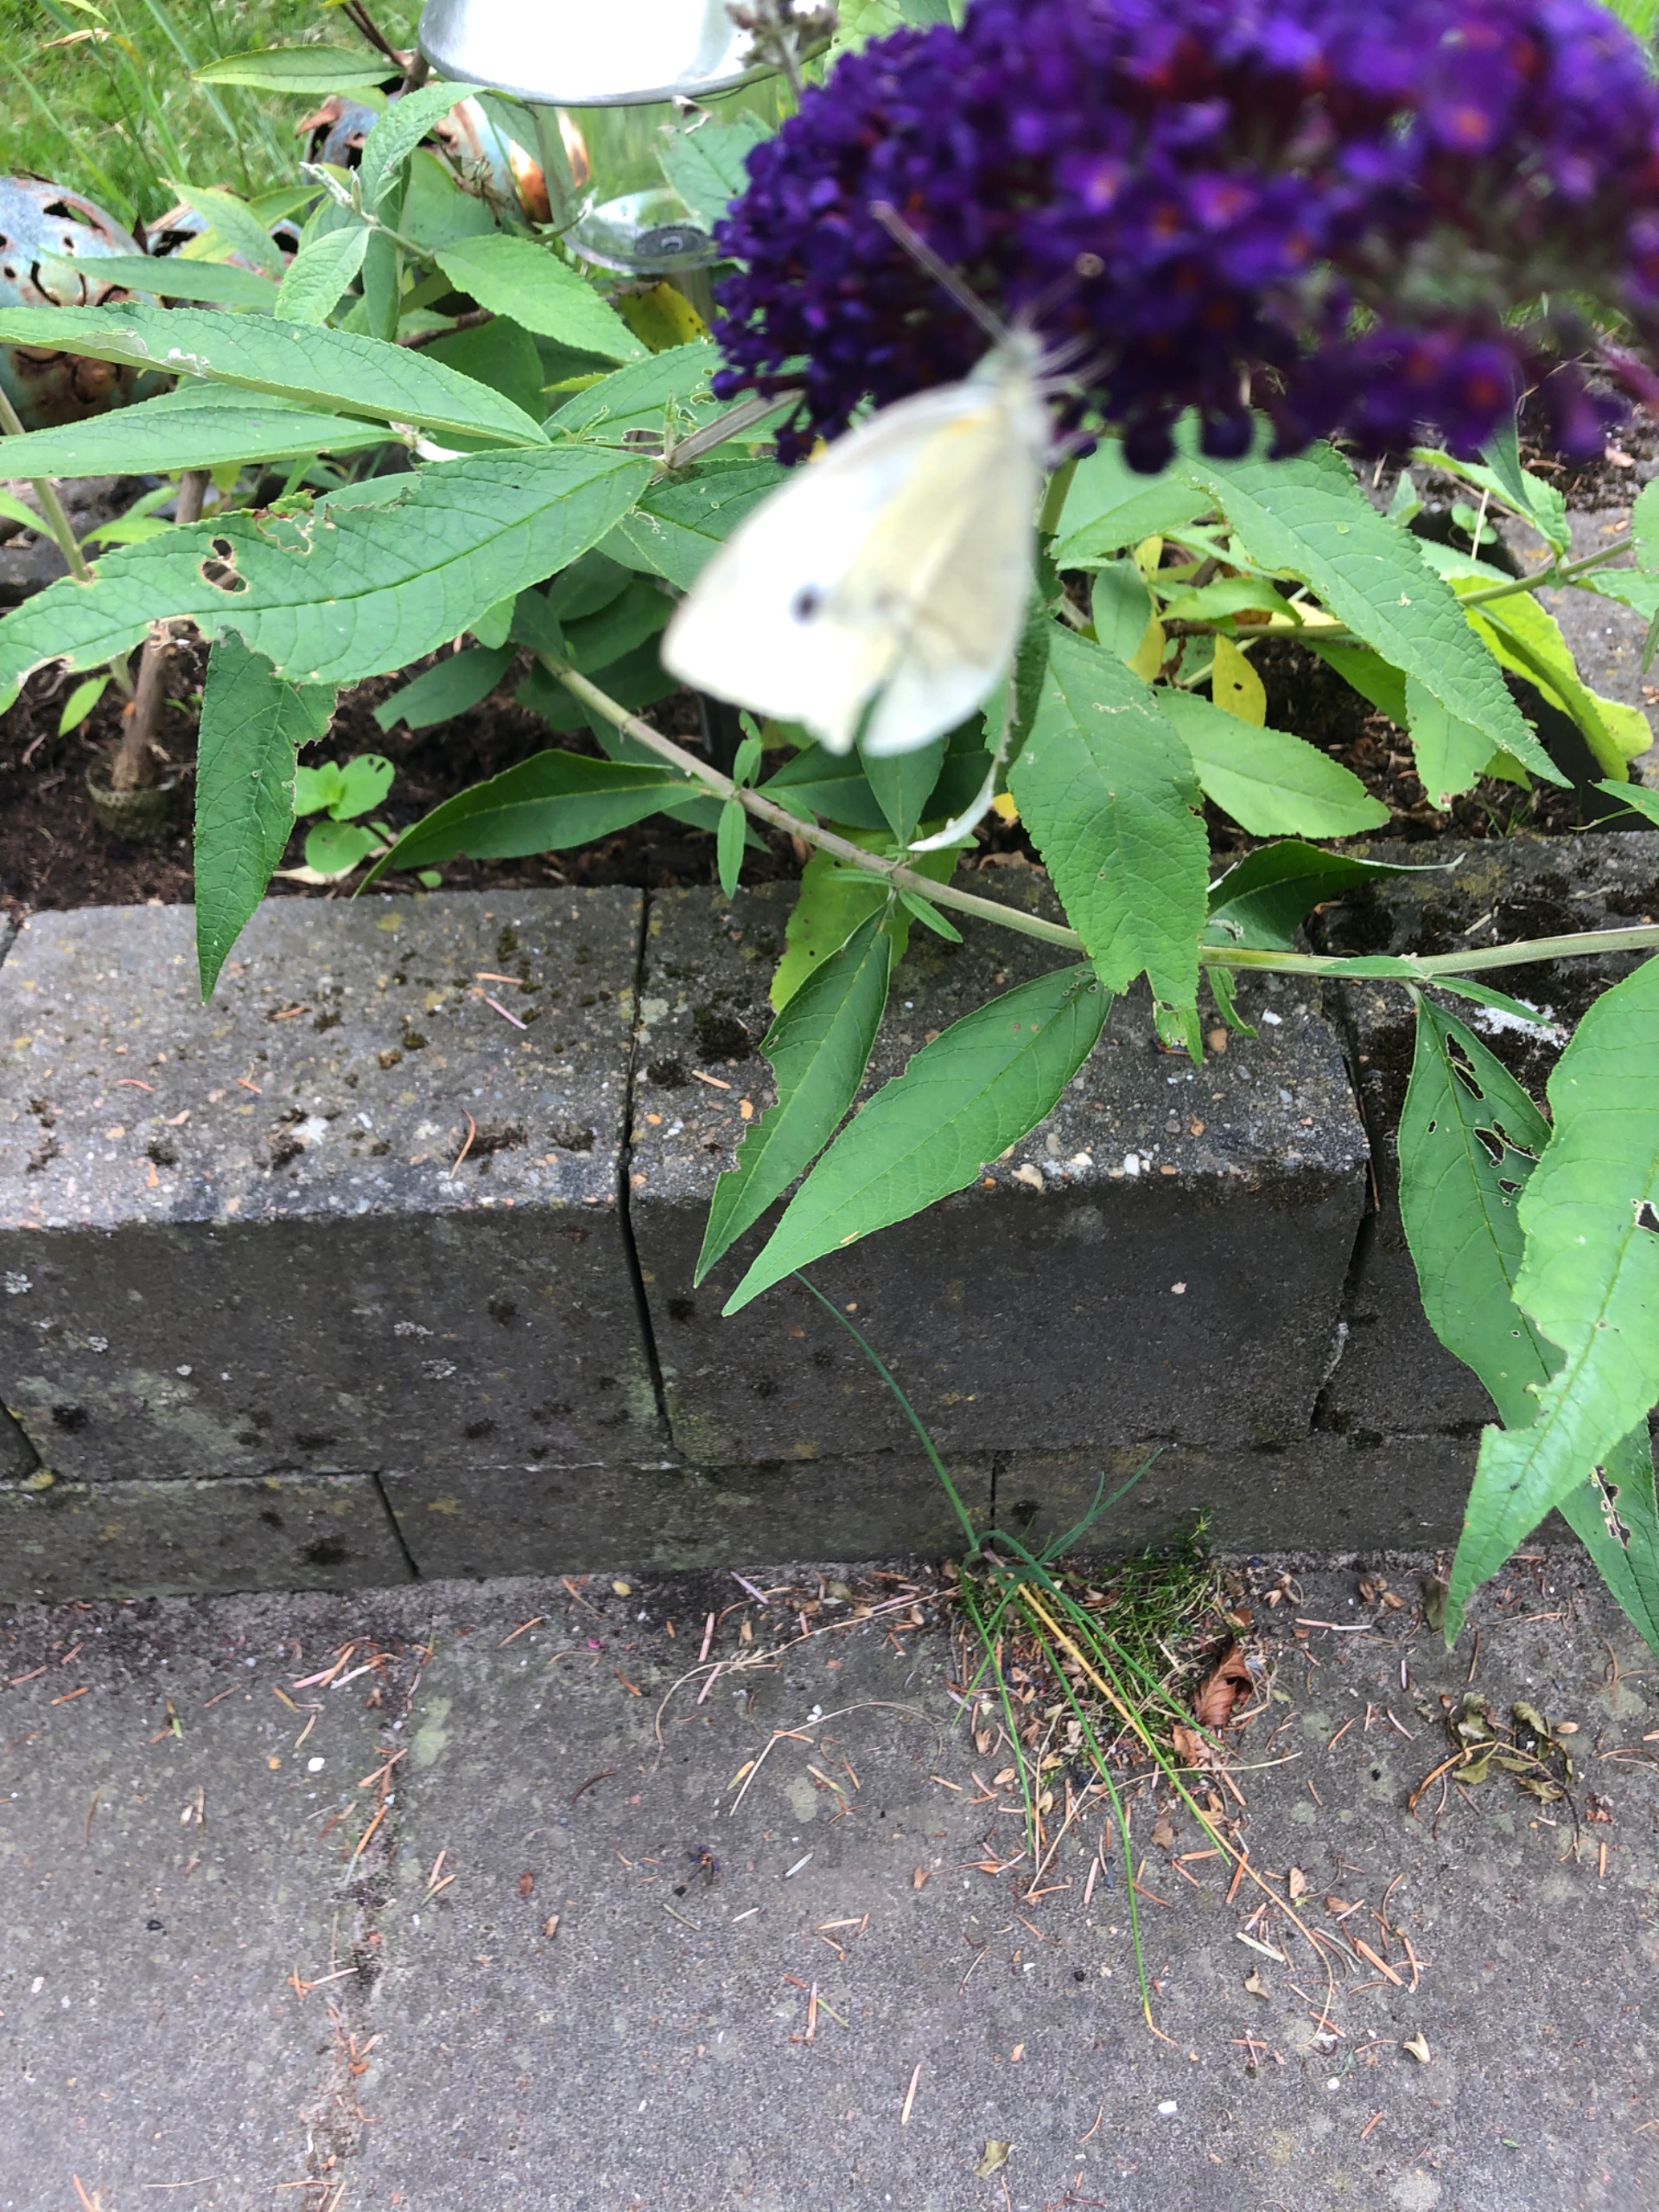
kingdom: Animalia
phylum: Arthropoda
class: Insecta
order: Lepidoptera
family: Pieridae
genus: Pieris
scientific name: Pieris rapae
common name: Lille kålsommerfugl
